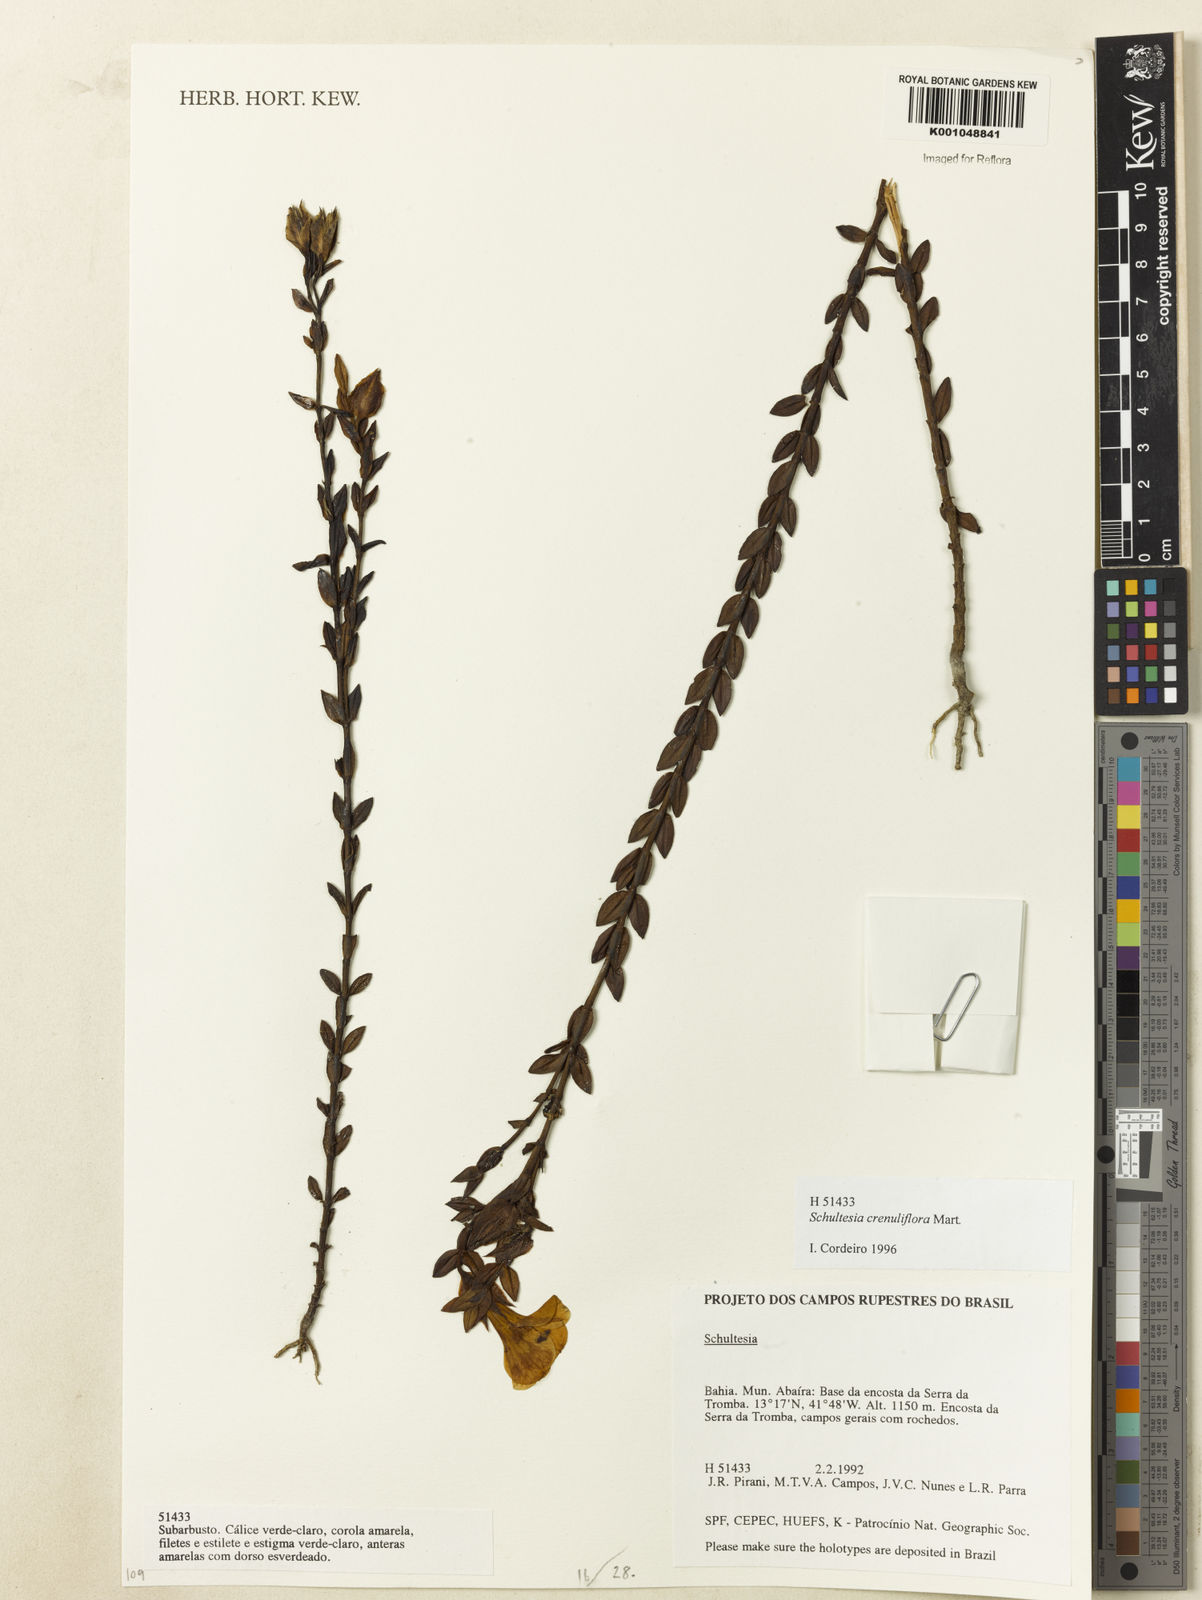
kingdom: Plantae
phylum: Tracheophyta
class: Magnoliopsida
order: Gentianales
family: Gentianaceae
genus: Schultesia
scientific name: Schultesia crenuliflora
